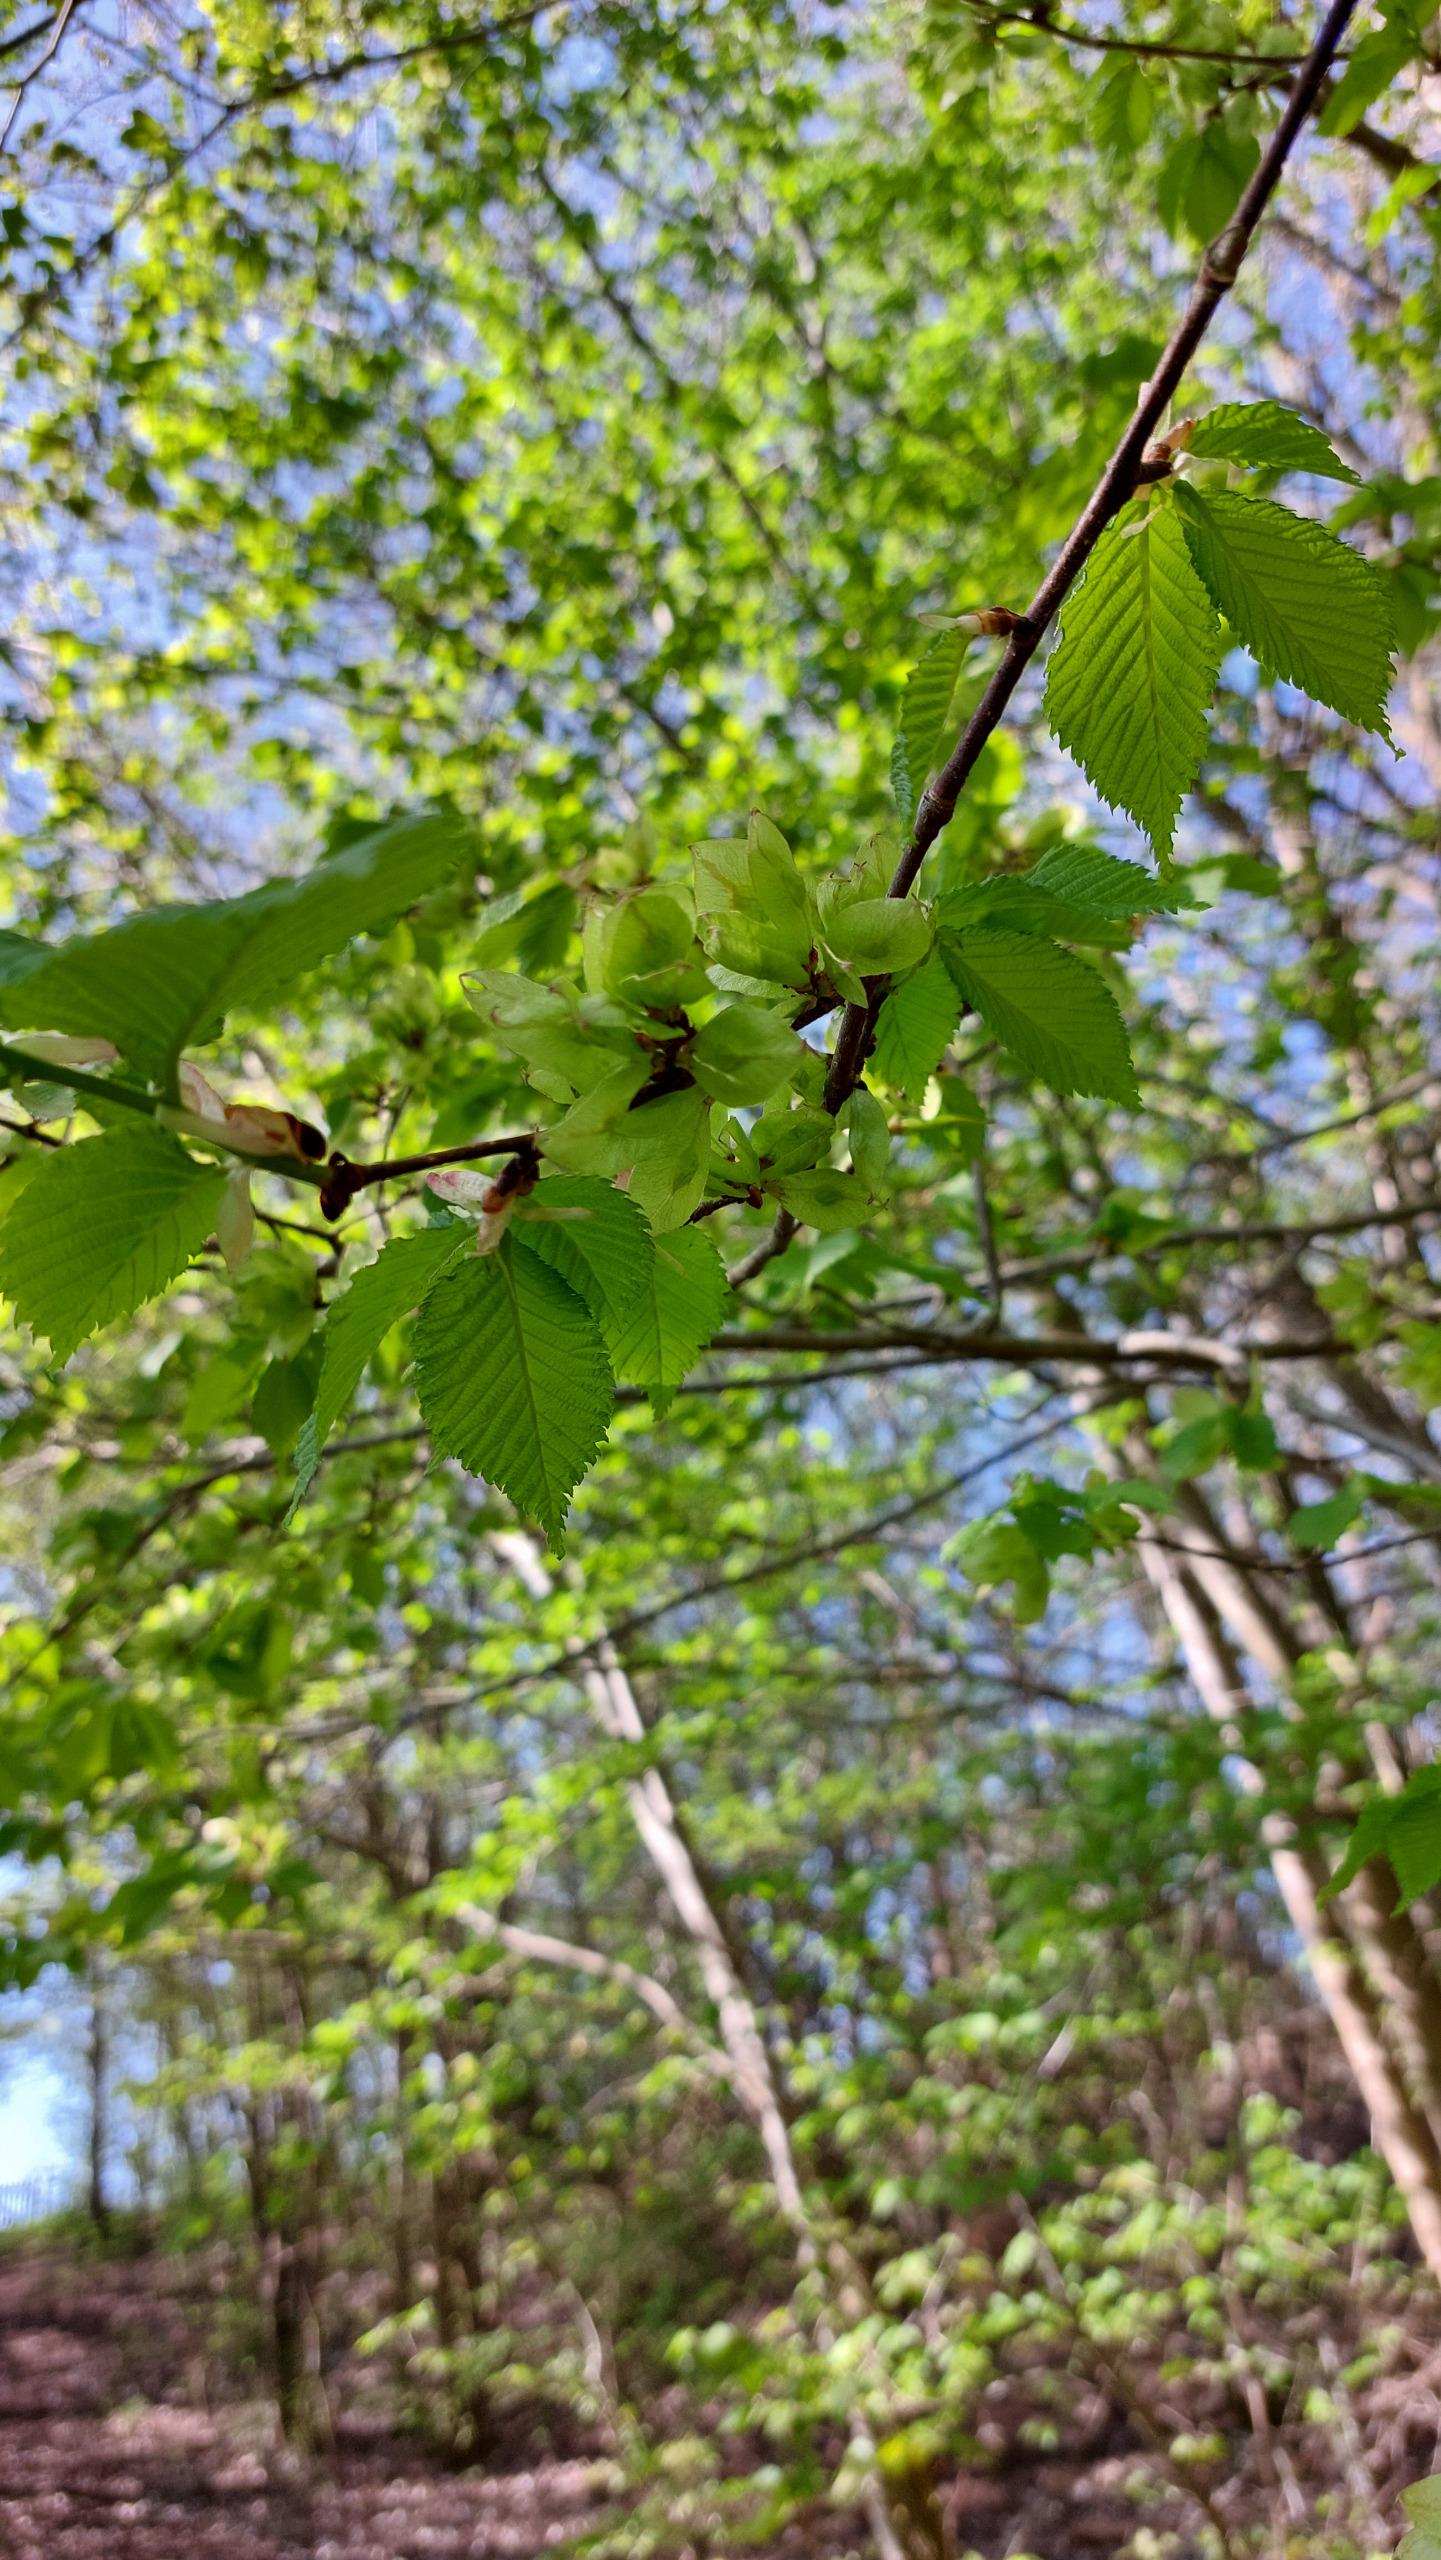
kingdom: Plantae
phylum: Tracheophyta
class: Magnoliopsida
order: Rosales
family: Ulmaceae
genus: Ulmus
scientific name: Ulmus glabra
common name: Skov-elm/storbladet elm
